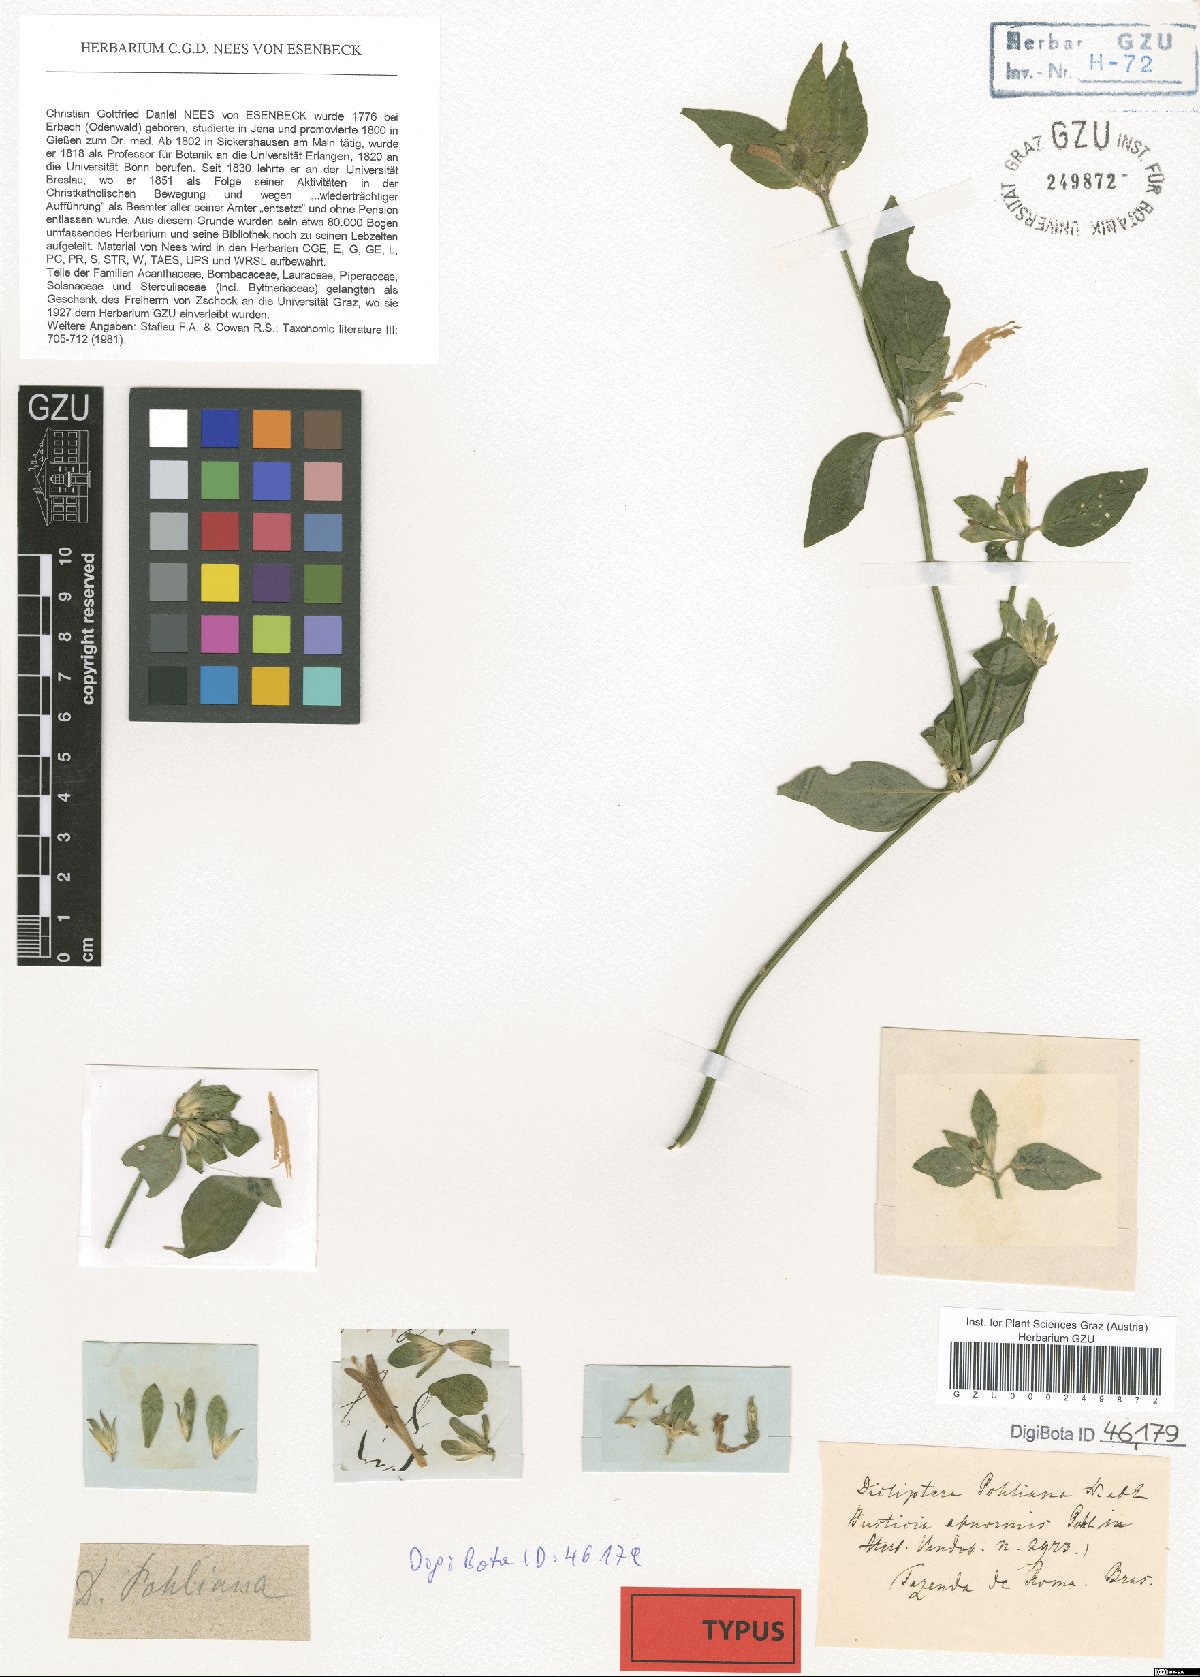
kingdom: Plantae
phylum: Tracheophyta
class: Magnoliopsida
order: Lamiales
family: Acanthaceae
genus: Dicliptera
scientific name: Dicliptera squarrosa
